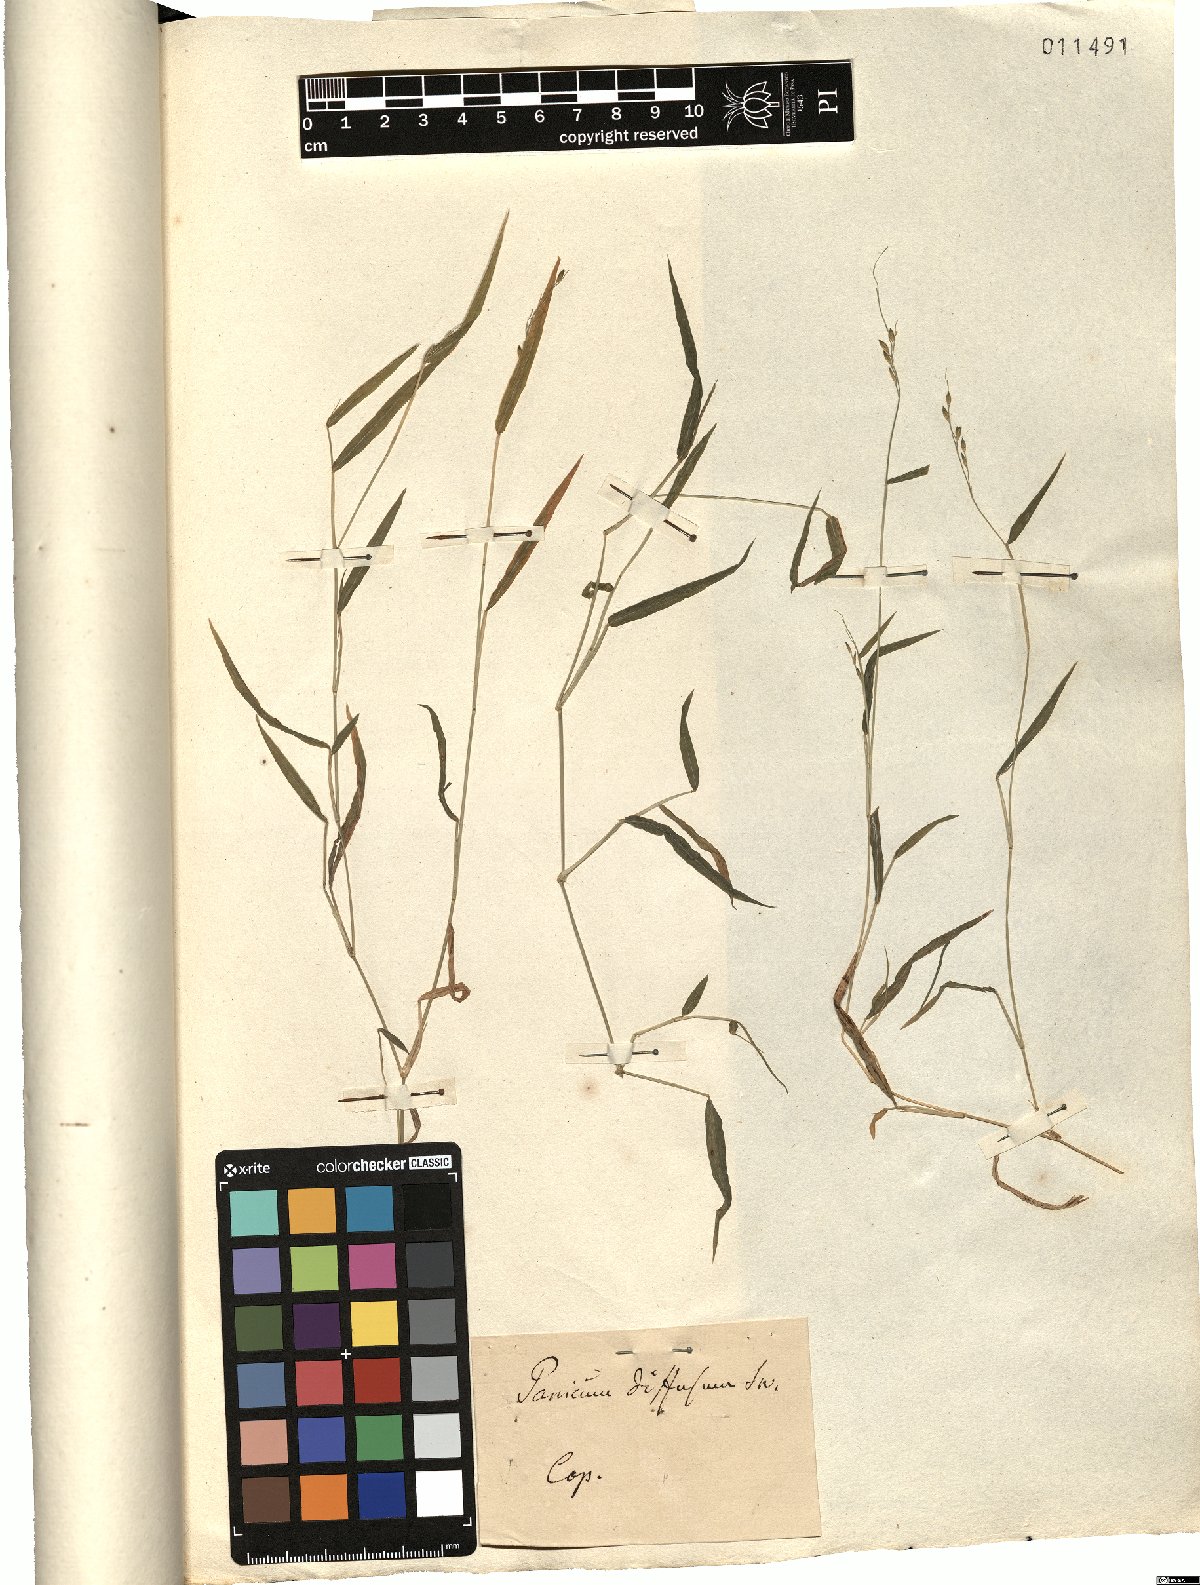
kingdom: Plantae
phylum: Tracheophyta
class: Liliopsida
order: Poales
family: Poaceae
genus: Panicum
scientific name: Panicum diffusum
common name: Spreading panicgrass
